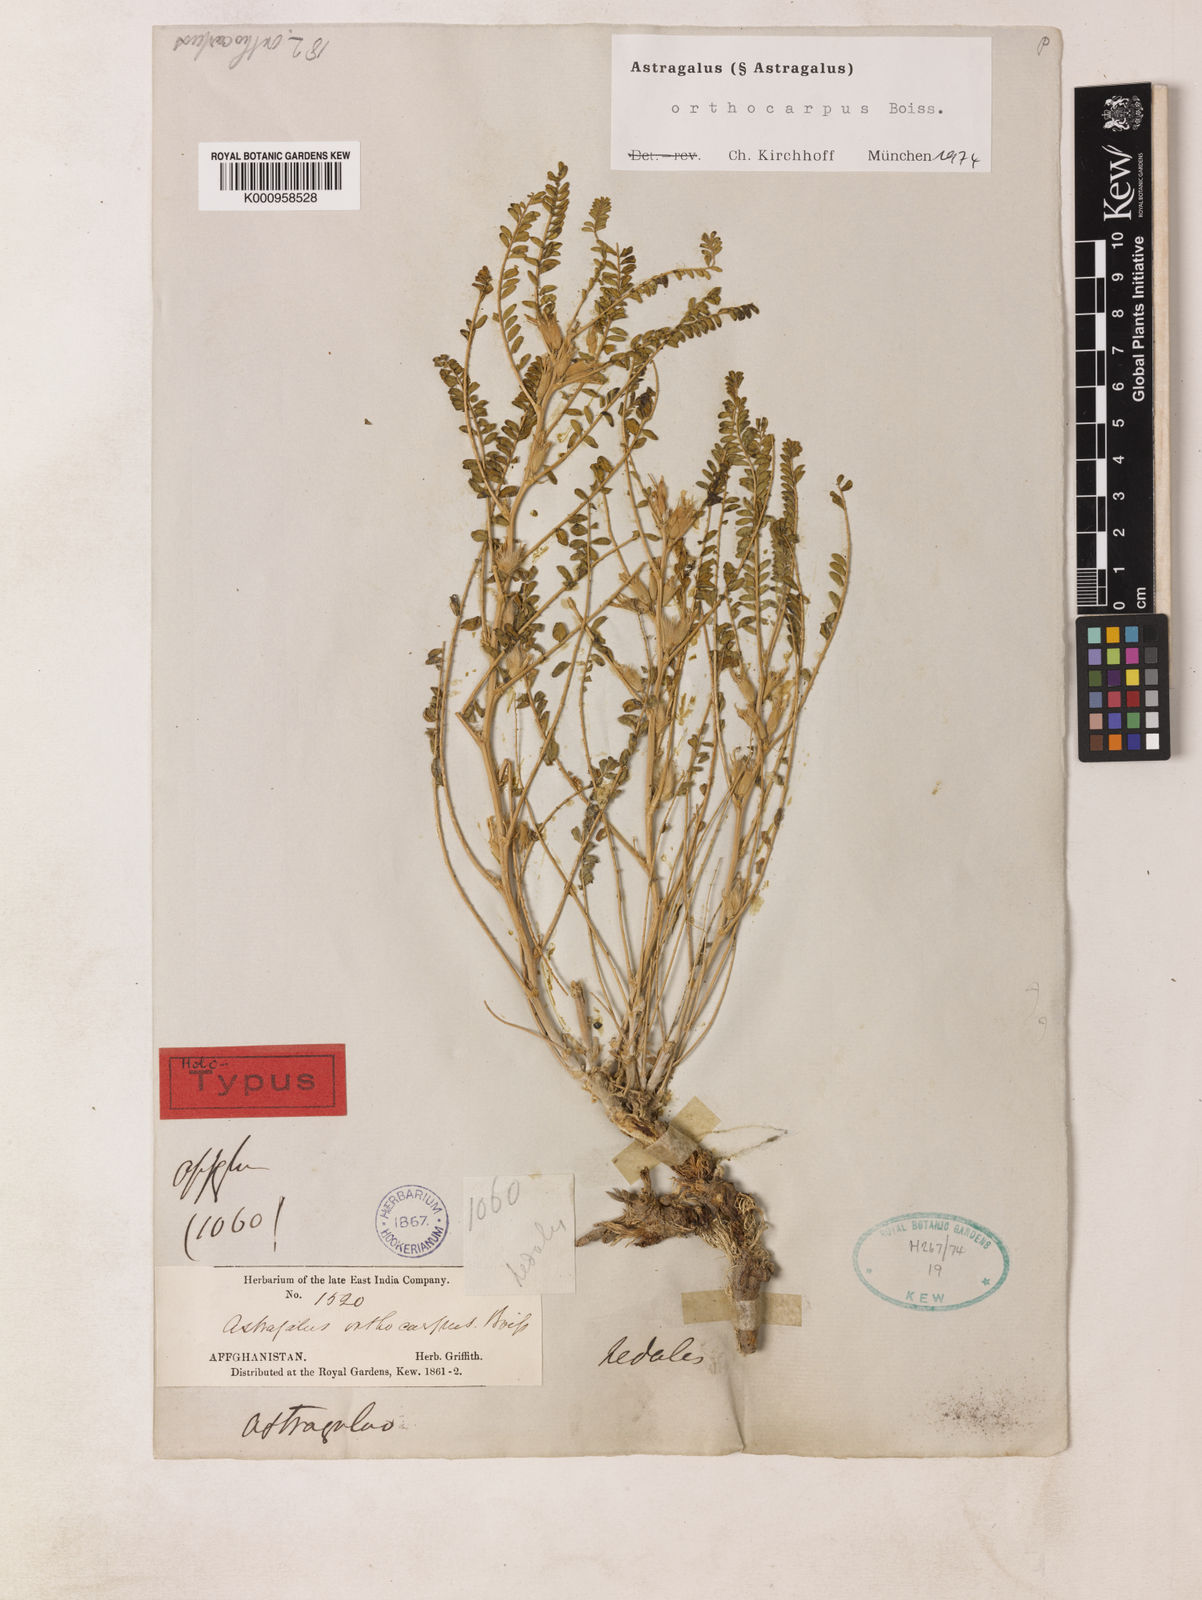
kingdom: Plantae
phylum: Tracheophyta
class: Magnoliopsida
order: Fabales
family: Fabaceae
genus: Astragalus
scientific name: Astragalus
